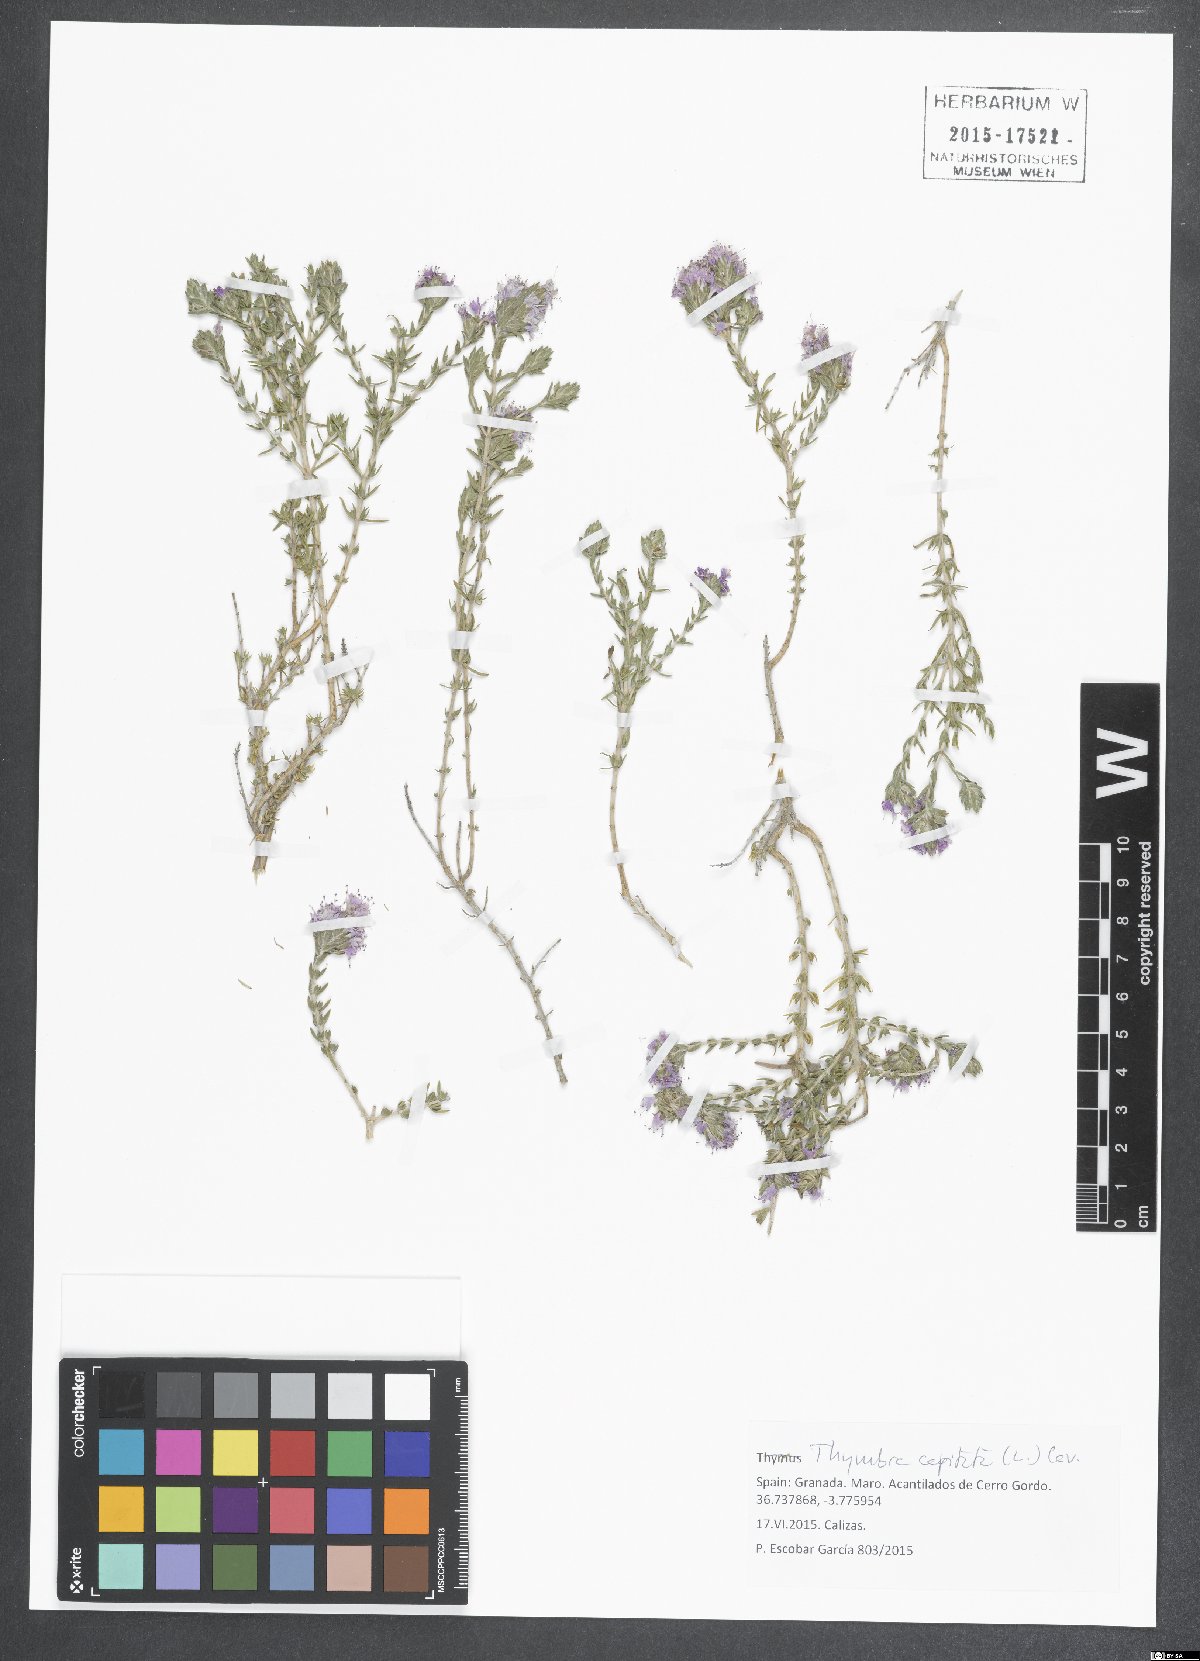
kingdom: Plantae
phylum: Tracheophyta
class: Magnoliopsida
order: Lamiales
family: Lamiaceae
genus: Thymbra
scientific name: Thymbra capitata
